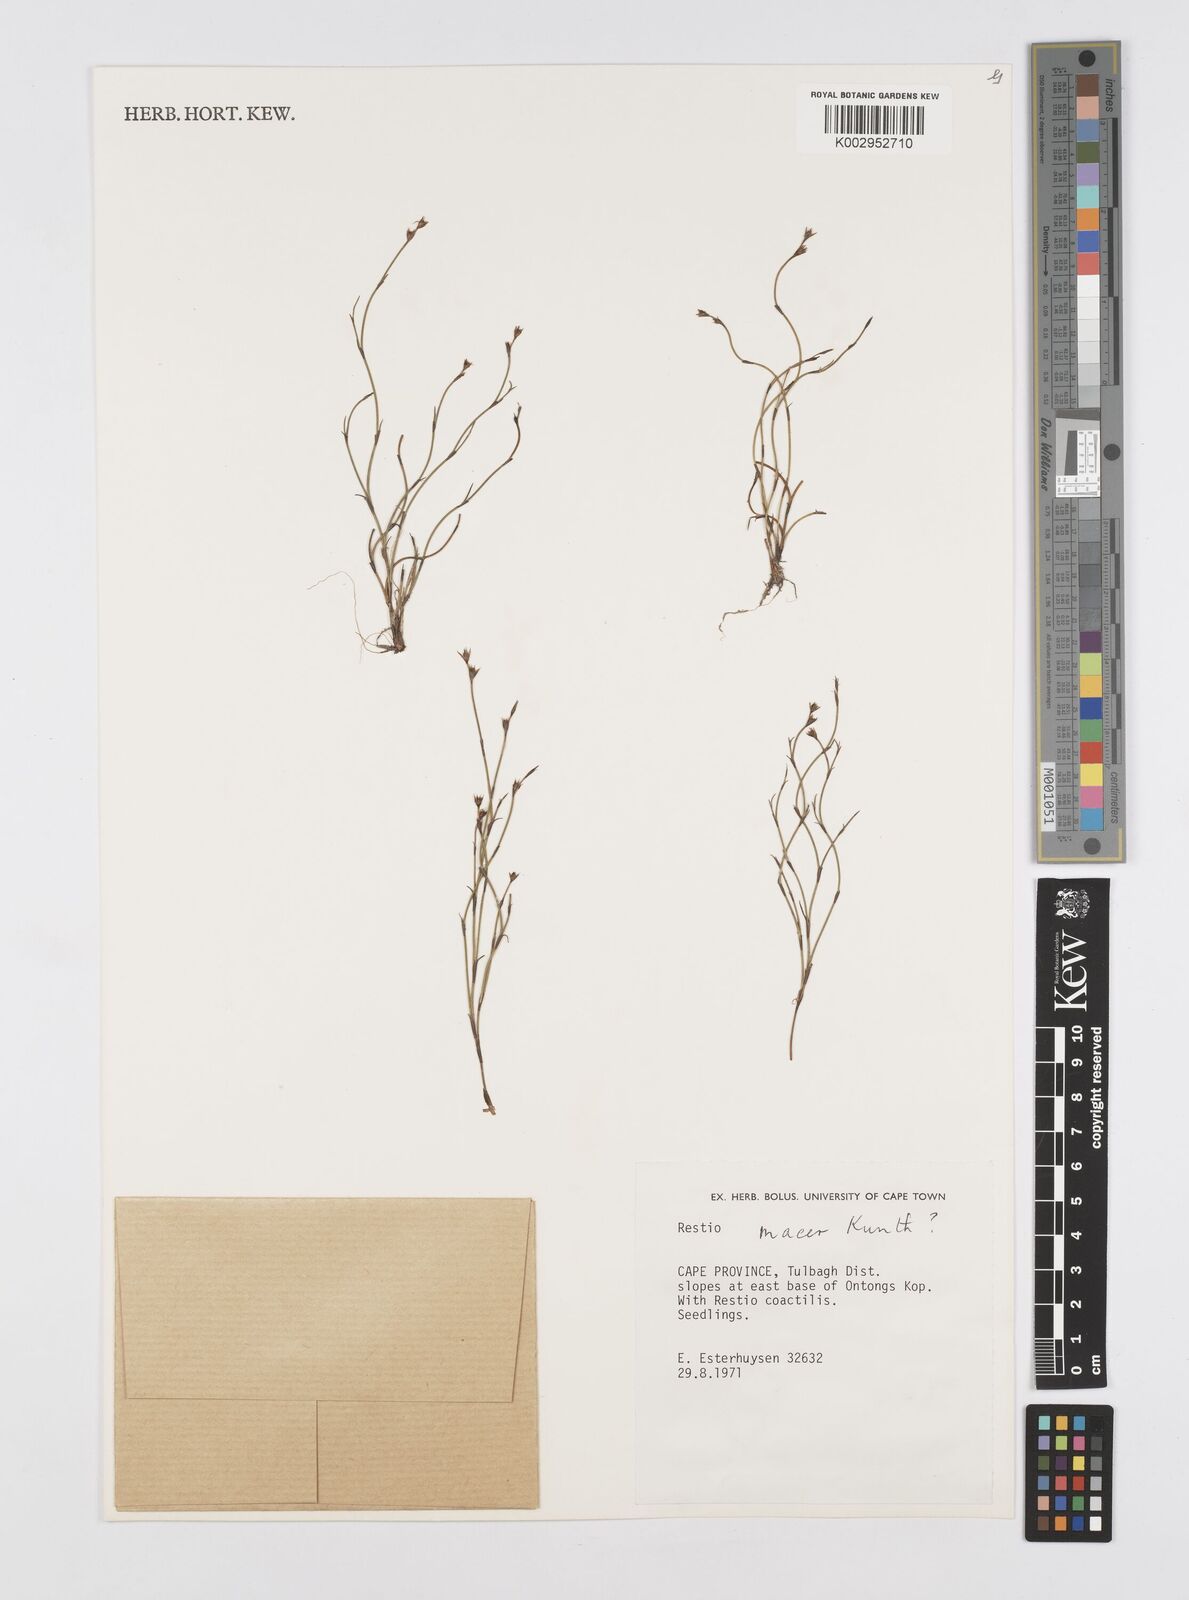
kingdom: Plantae
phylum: Tracheophyta
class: Liliopsida
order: Poales
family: Restionaceae
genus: Restio
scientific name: Restio macer
